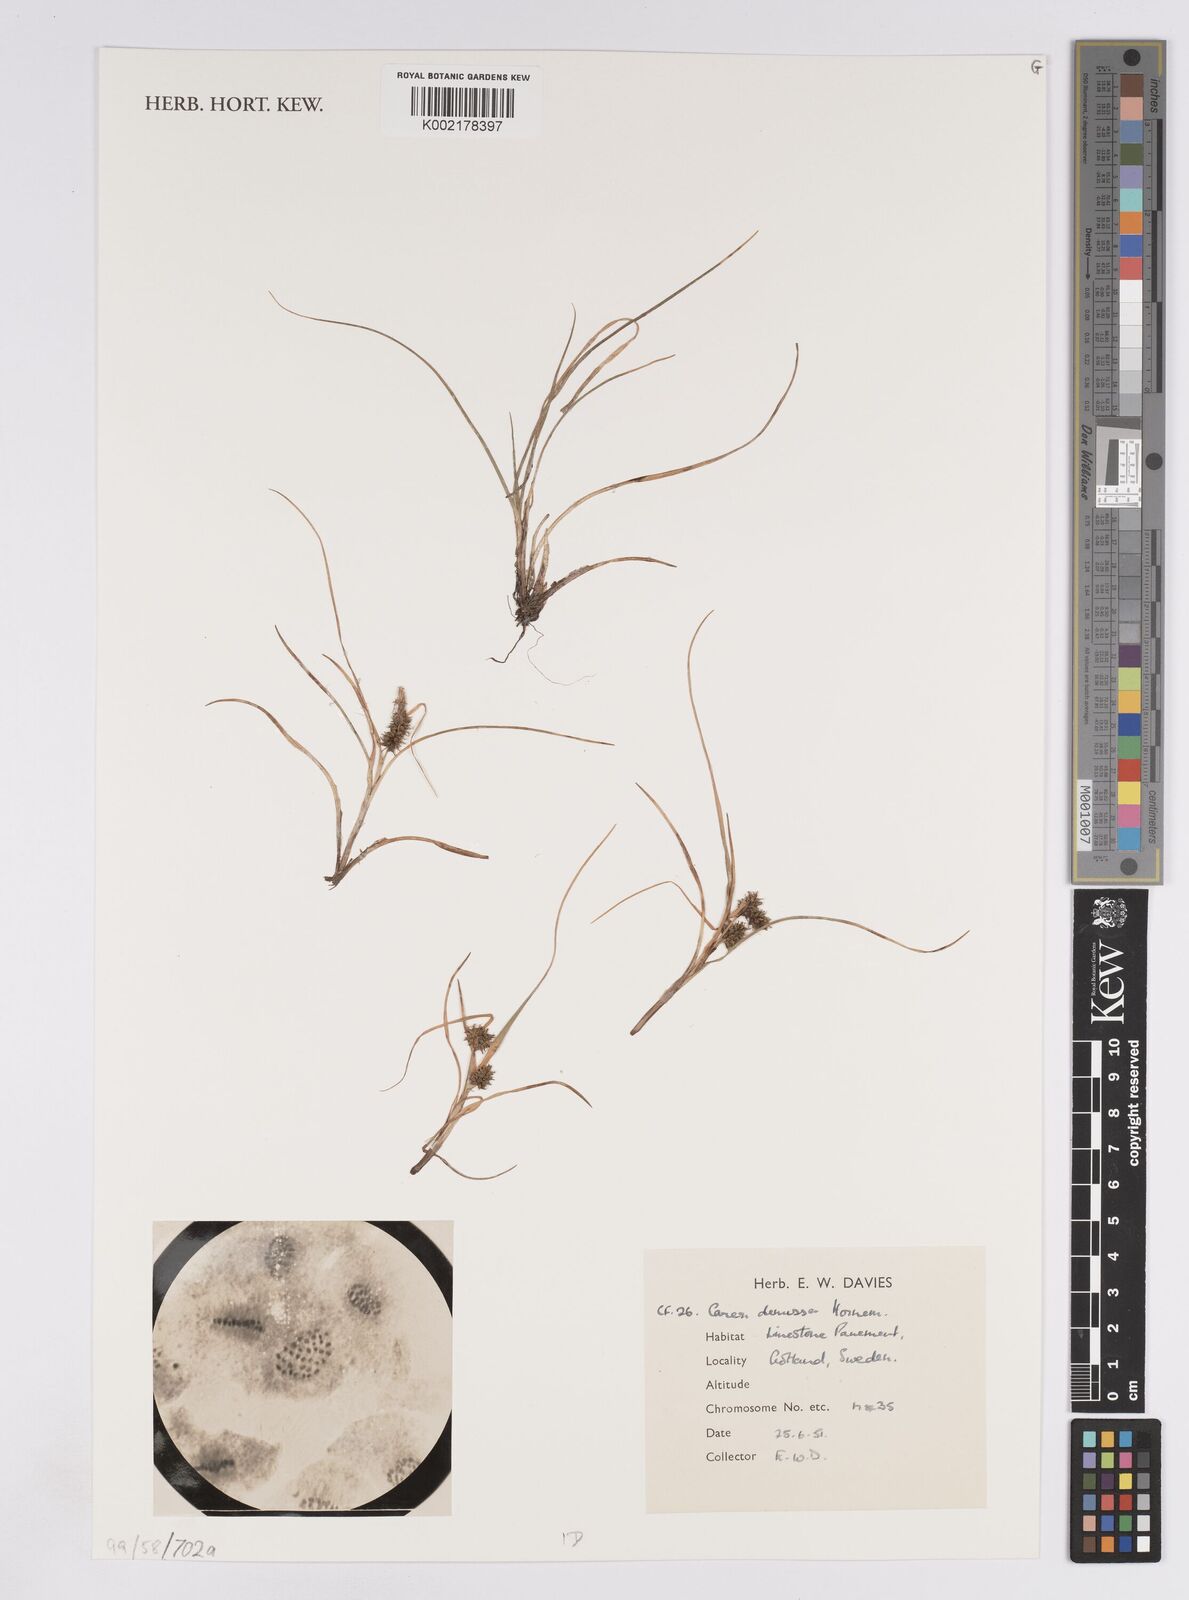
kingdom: Plantae
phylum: Tracheophyta
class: Liliopsida
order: Poales
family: Cyperaceae
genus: Carex
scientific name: Carex demissa
